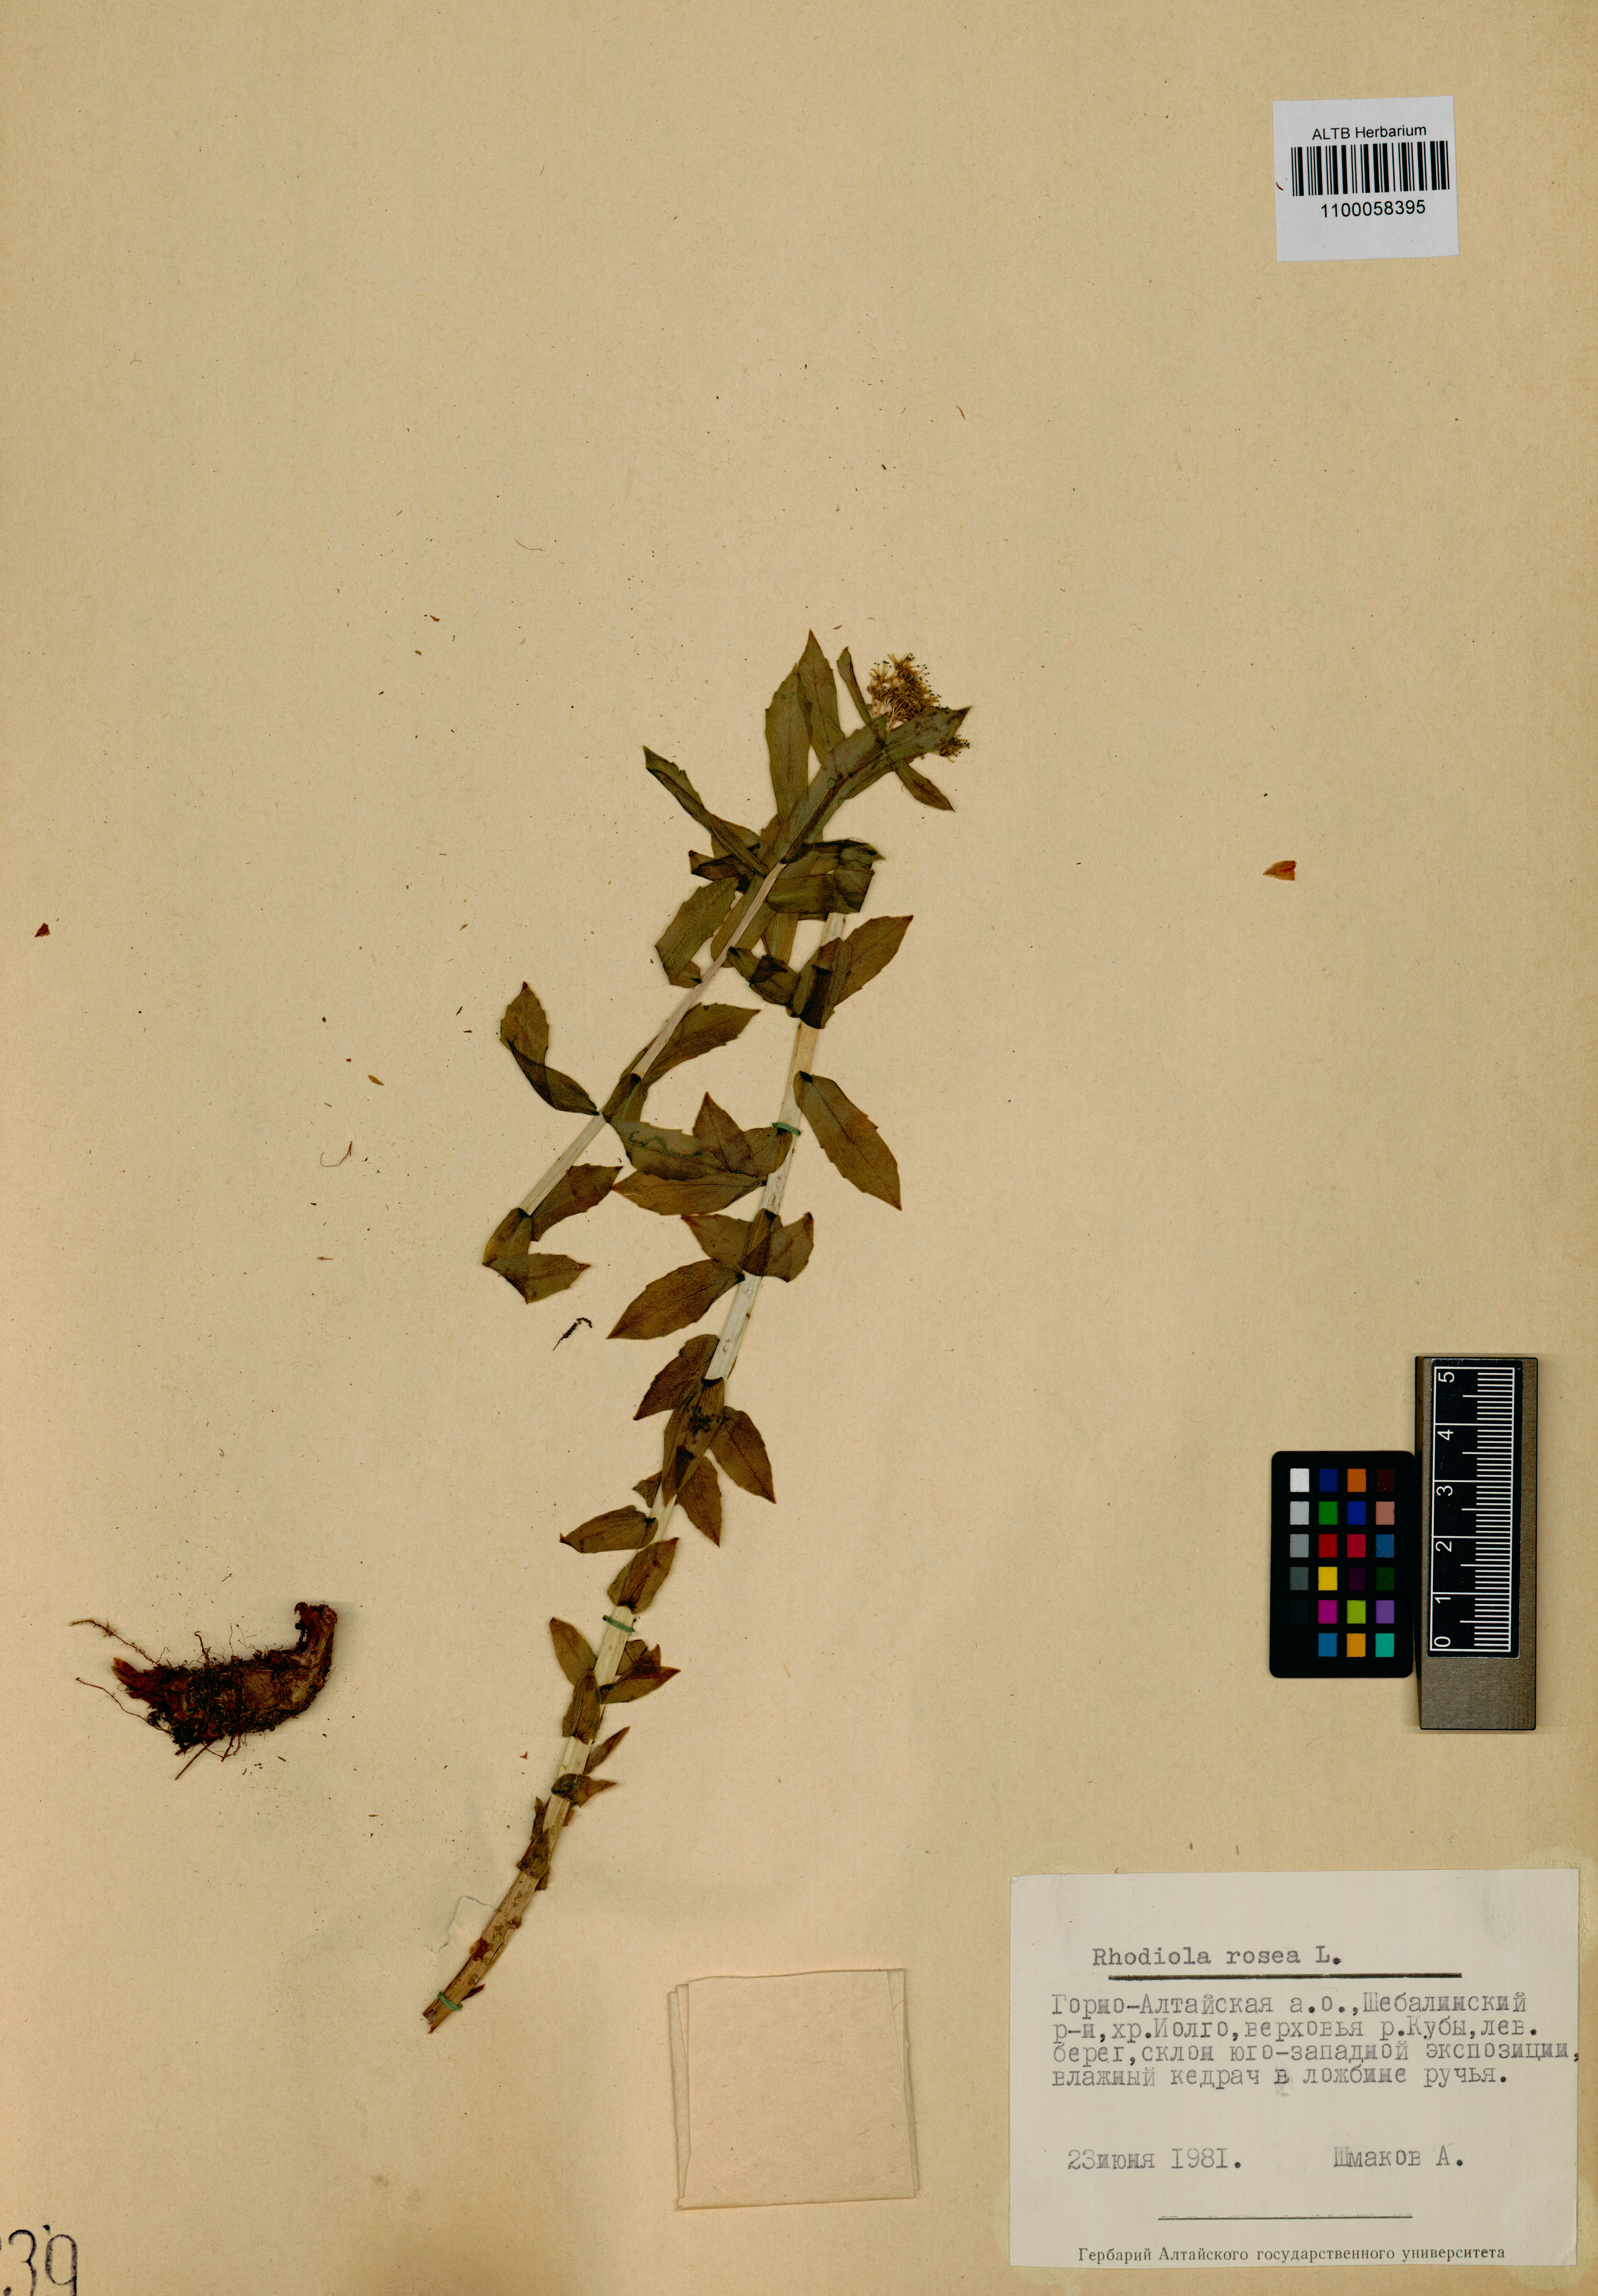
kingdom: Plantae
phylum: Tracheophyta
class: Magnoliopsida
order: Saxifragales
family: Crassulaceae
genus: Rhodiola
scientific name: Rhodiola rosea
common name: Roseroot
